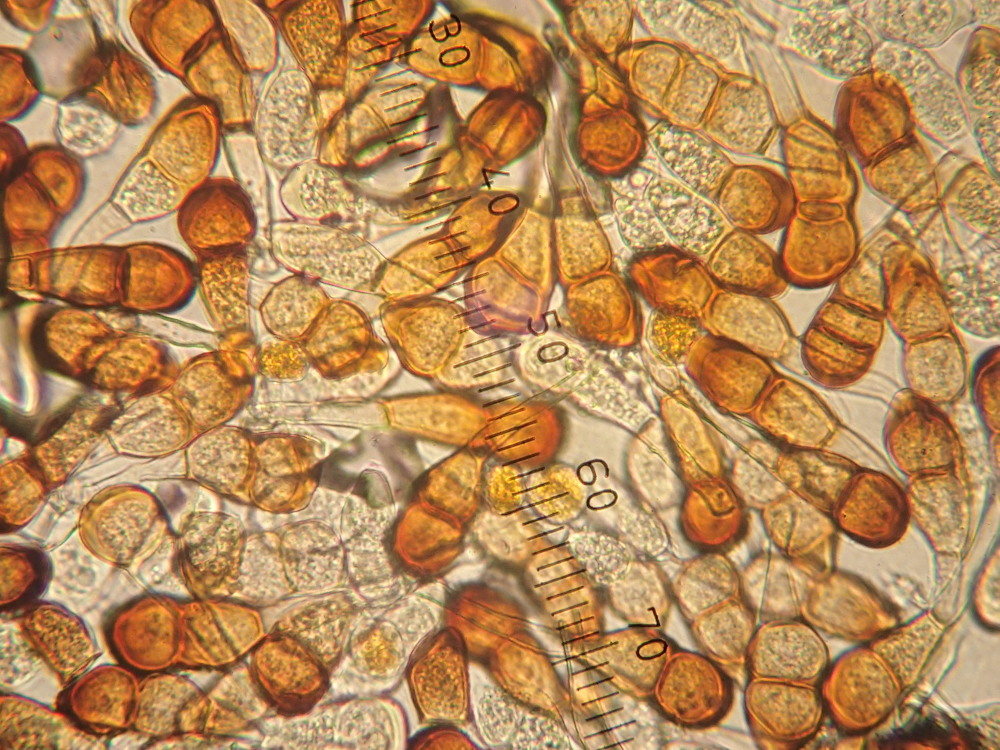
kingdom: Fungi
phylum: Basidiomycota
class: Pucciniomycetes
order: Pucciniales
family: Pucciniaceae
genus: Puccinia
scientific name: Puccinia lagenophorae
